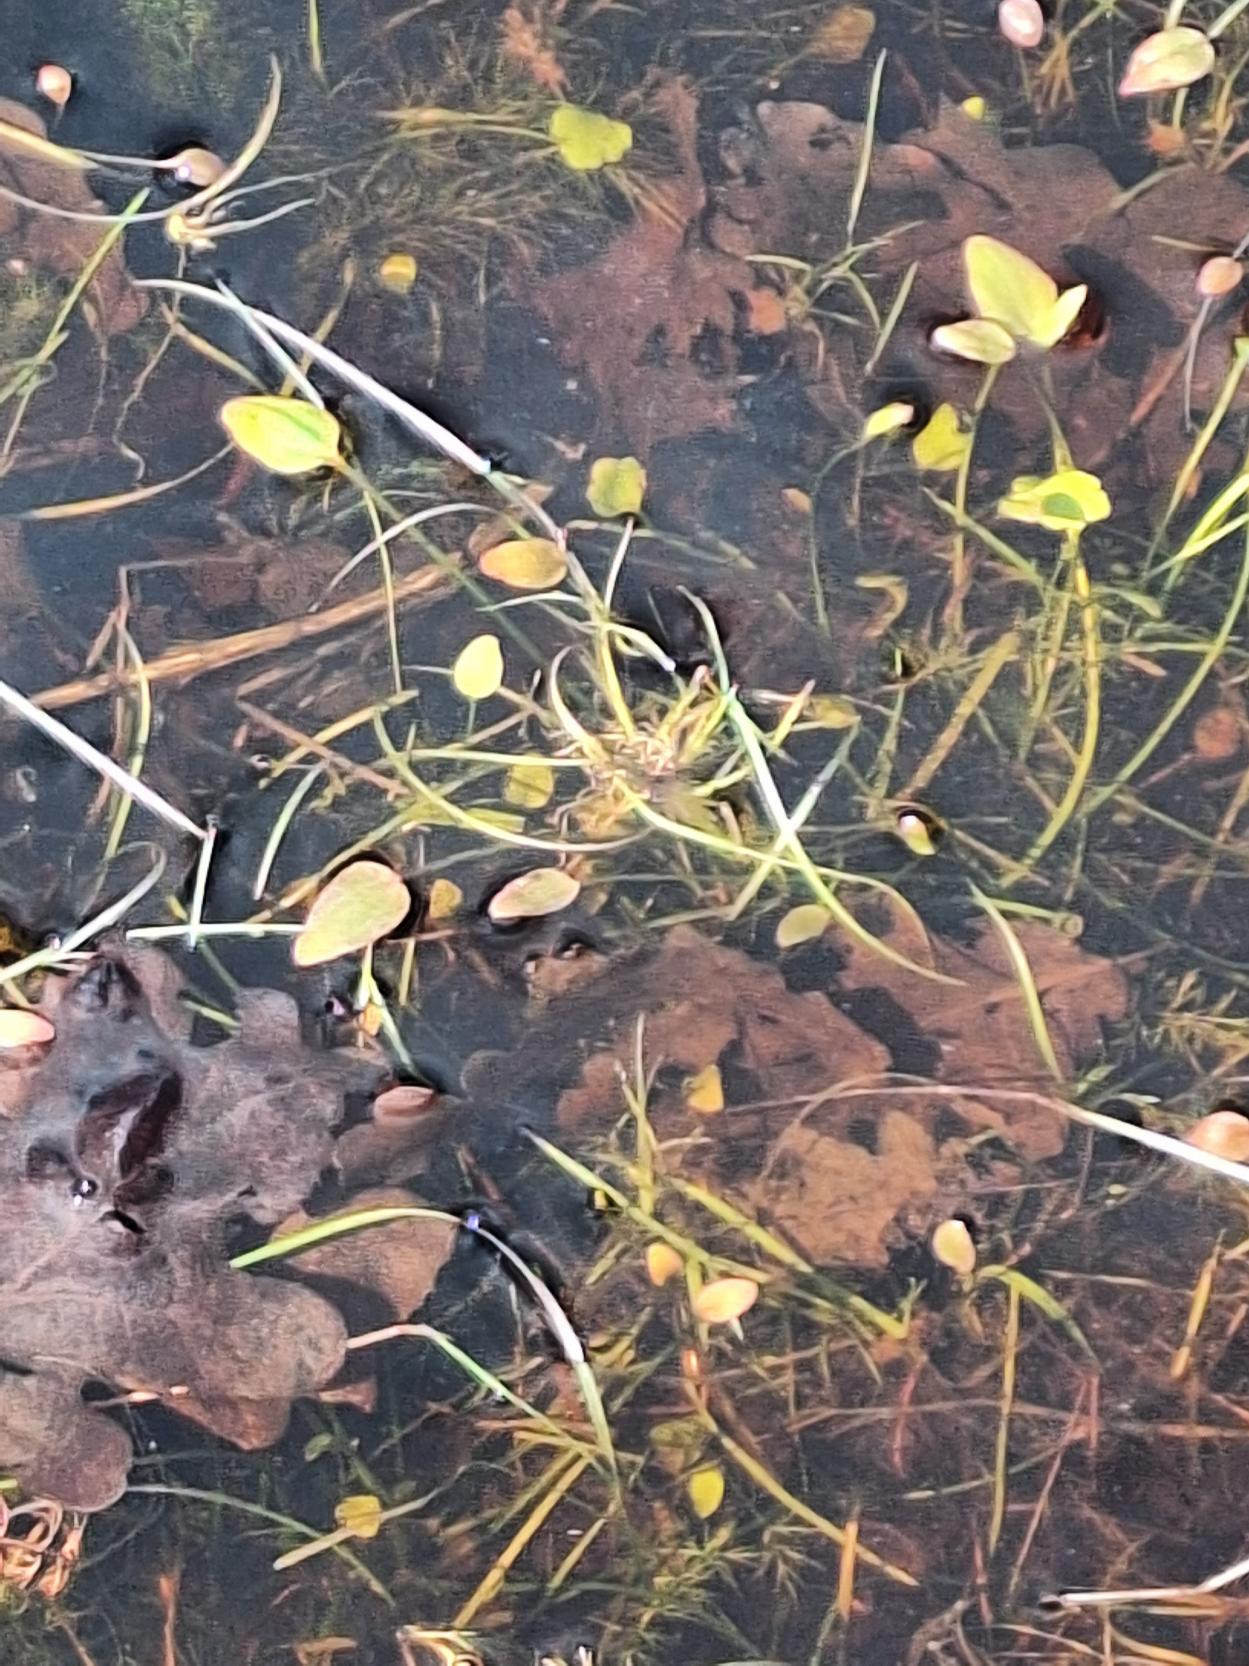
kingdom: Plantae
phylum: Tracheophyta
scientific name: Tracheophyta
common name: Karplanter
